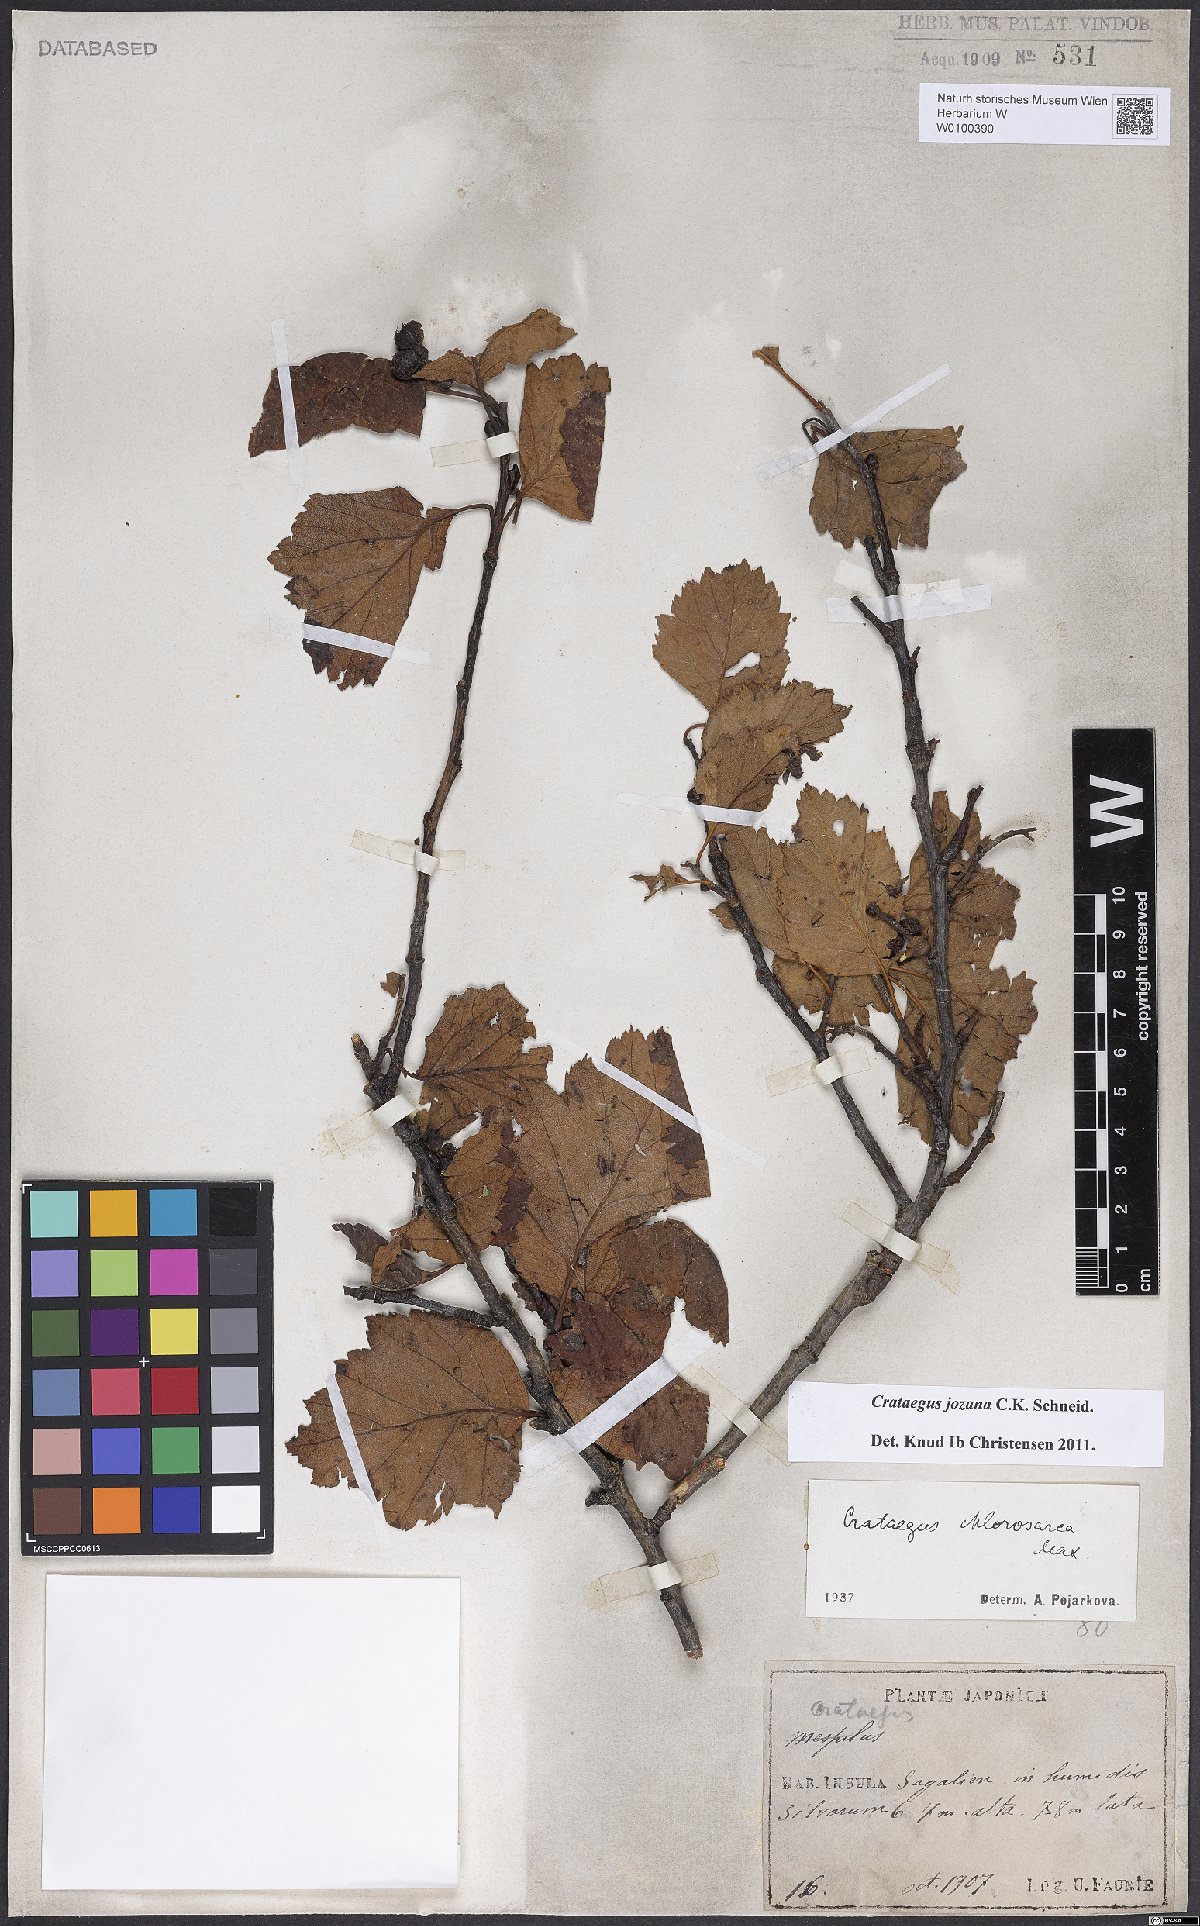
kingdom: Plantae
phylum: Tracheophyta
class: Magnoliopsida
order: Rosales
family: Rosaceae
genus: Crataegus
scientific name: Crataegus chlorosarca
